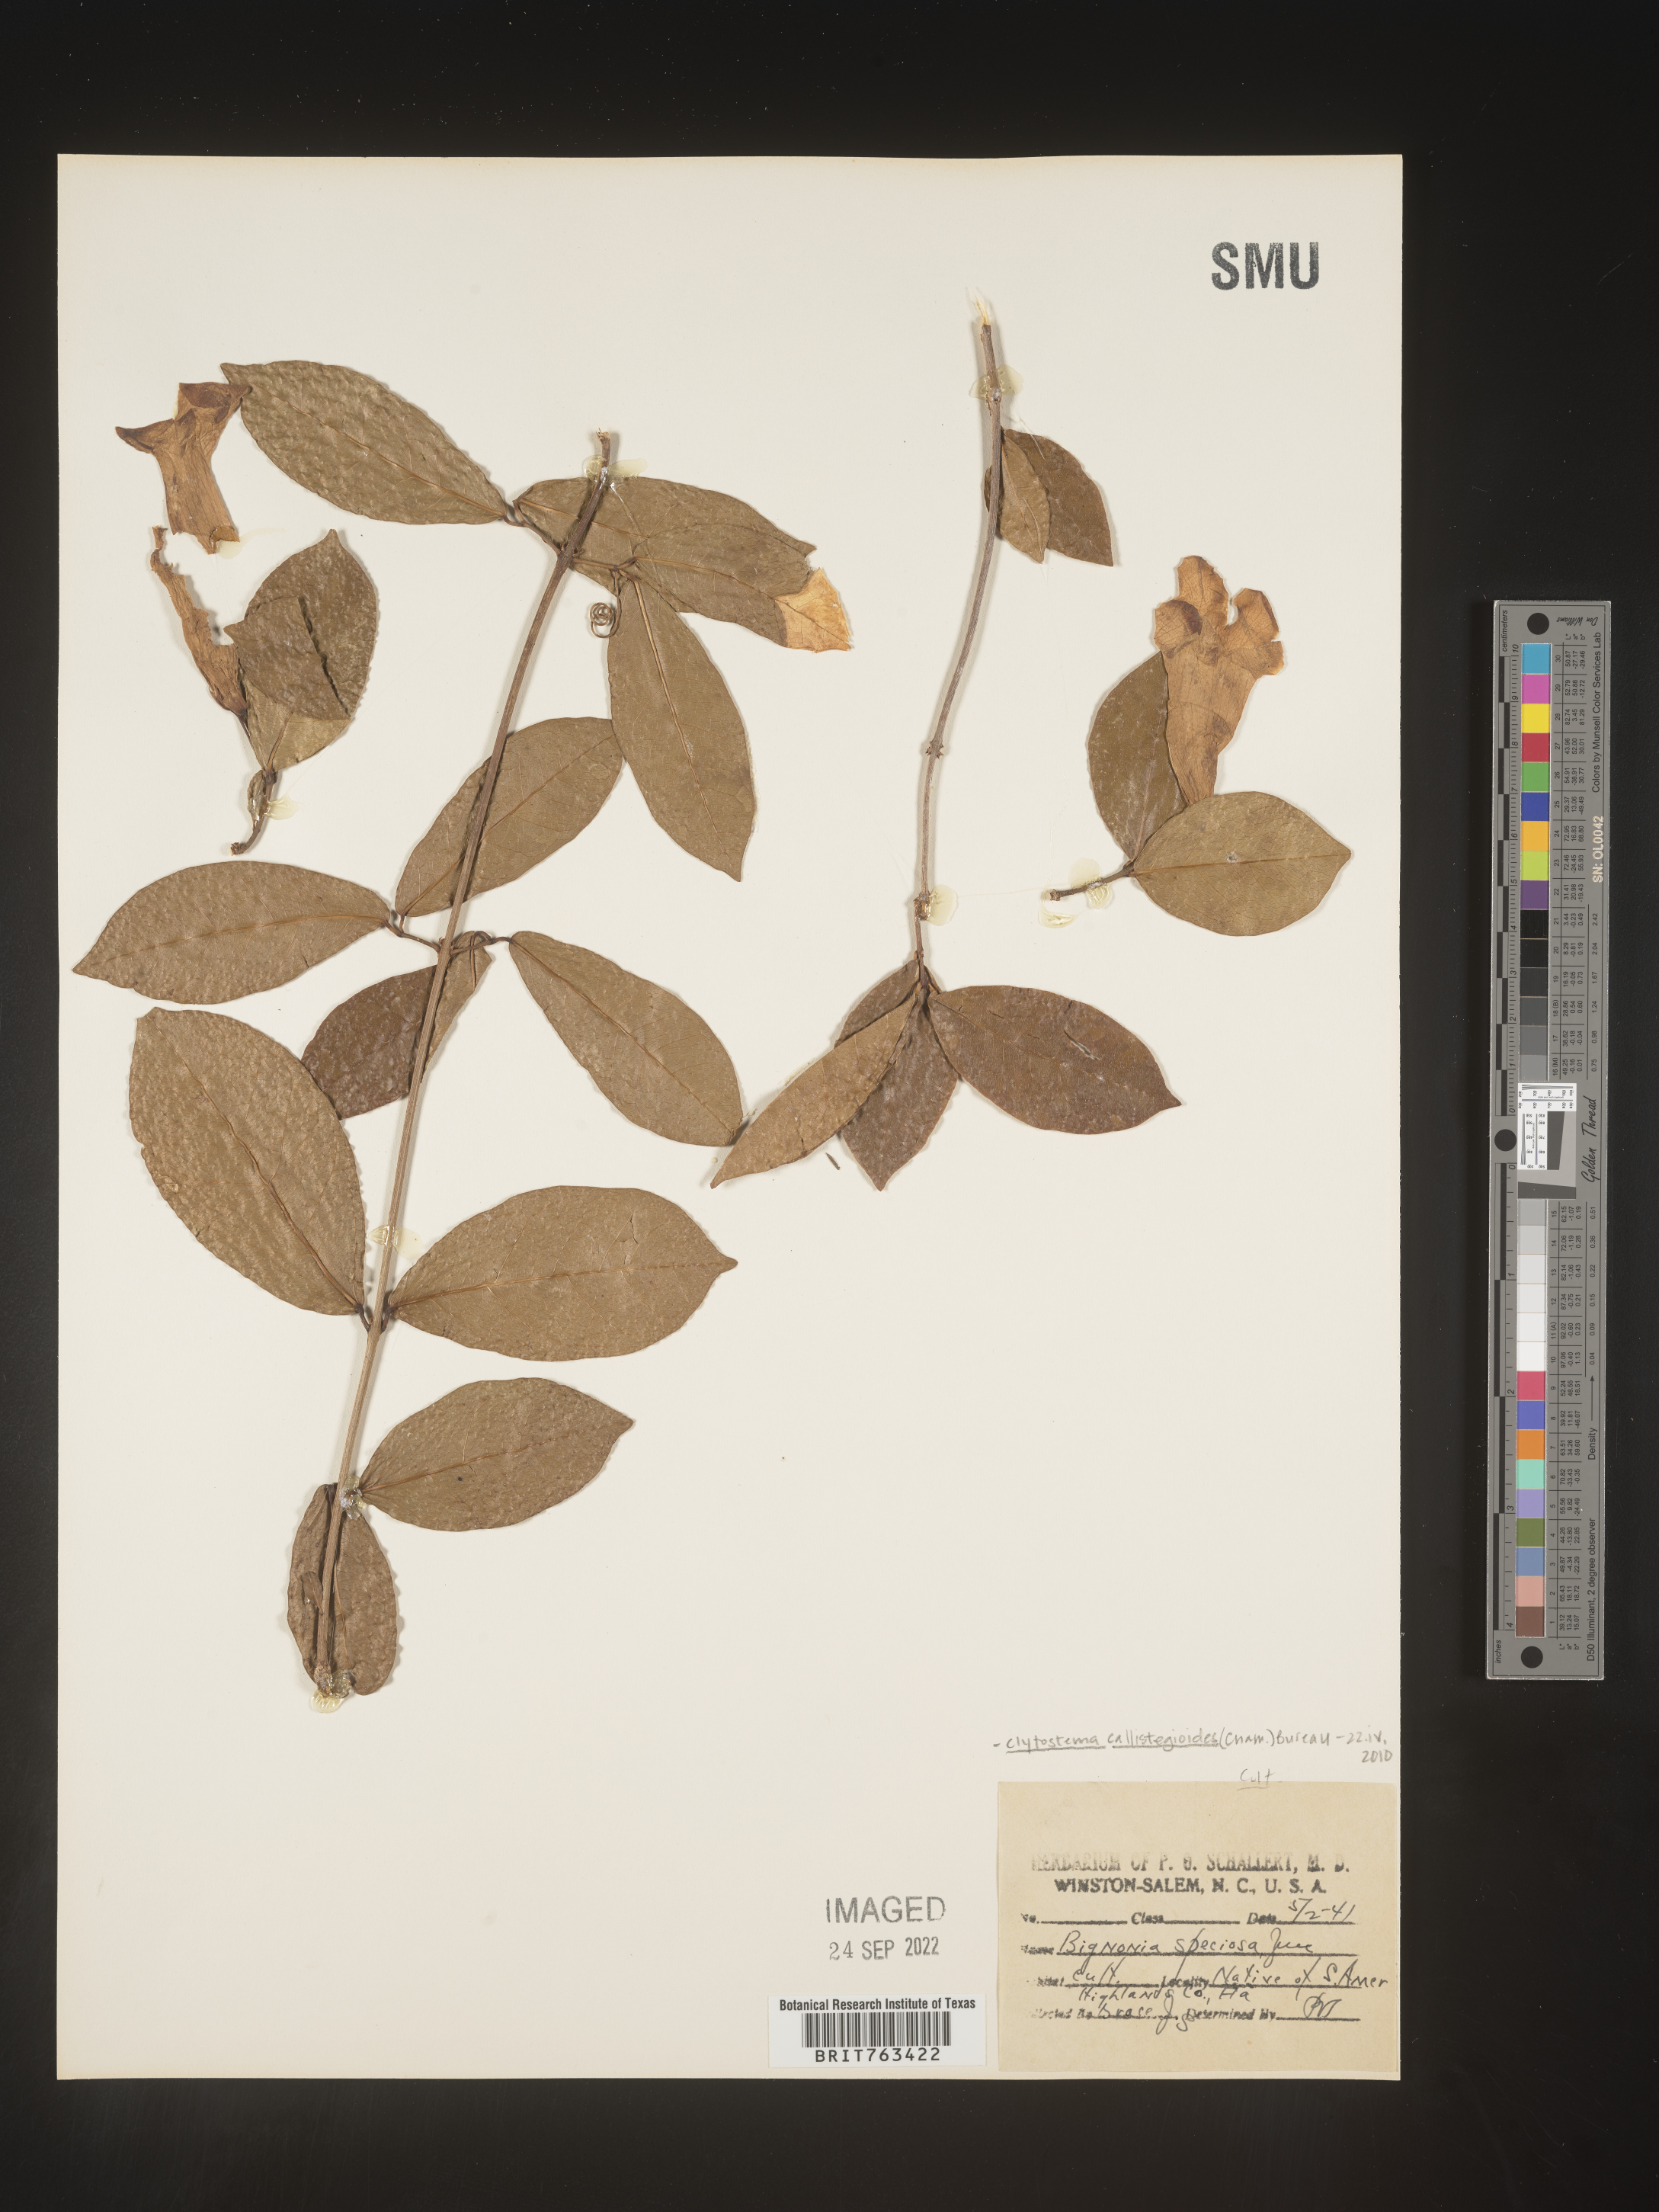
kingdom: Plantae
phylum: Tracheophyta
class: Magnoliopsida
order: Lamiales
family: Bignoniaceae
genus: Bignonia
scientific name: Bignonia
